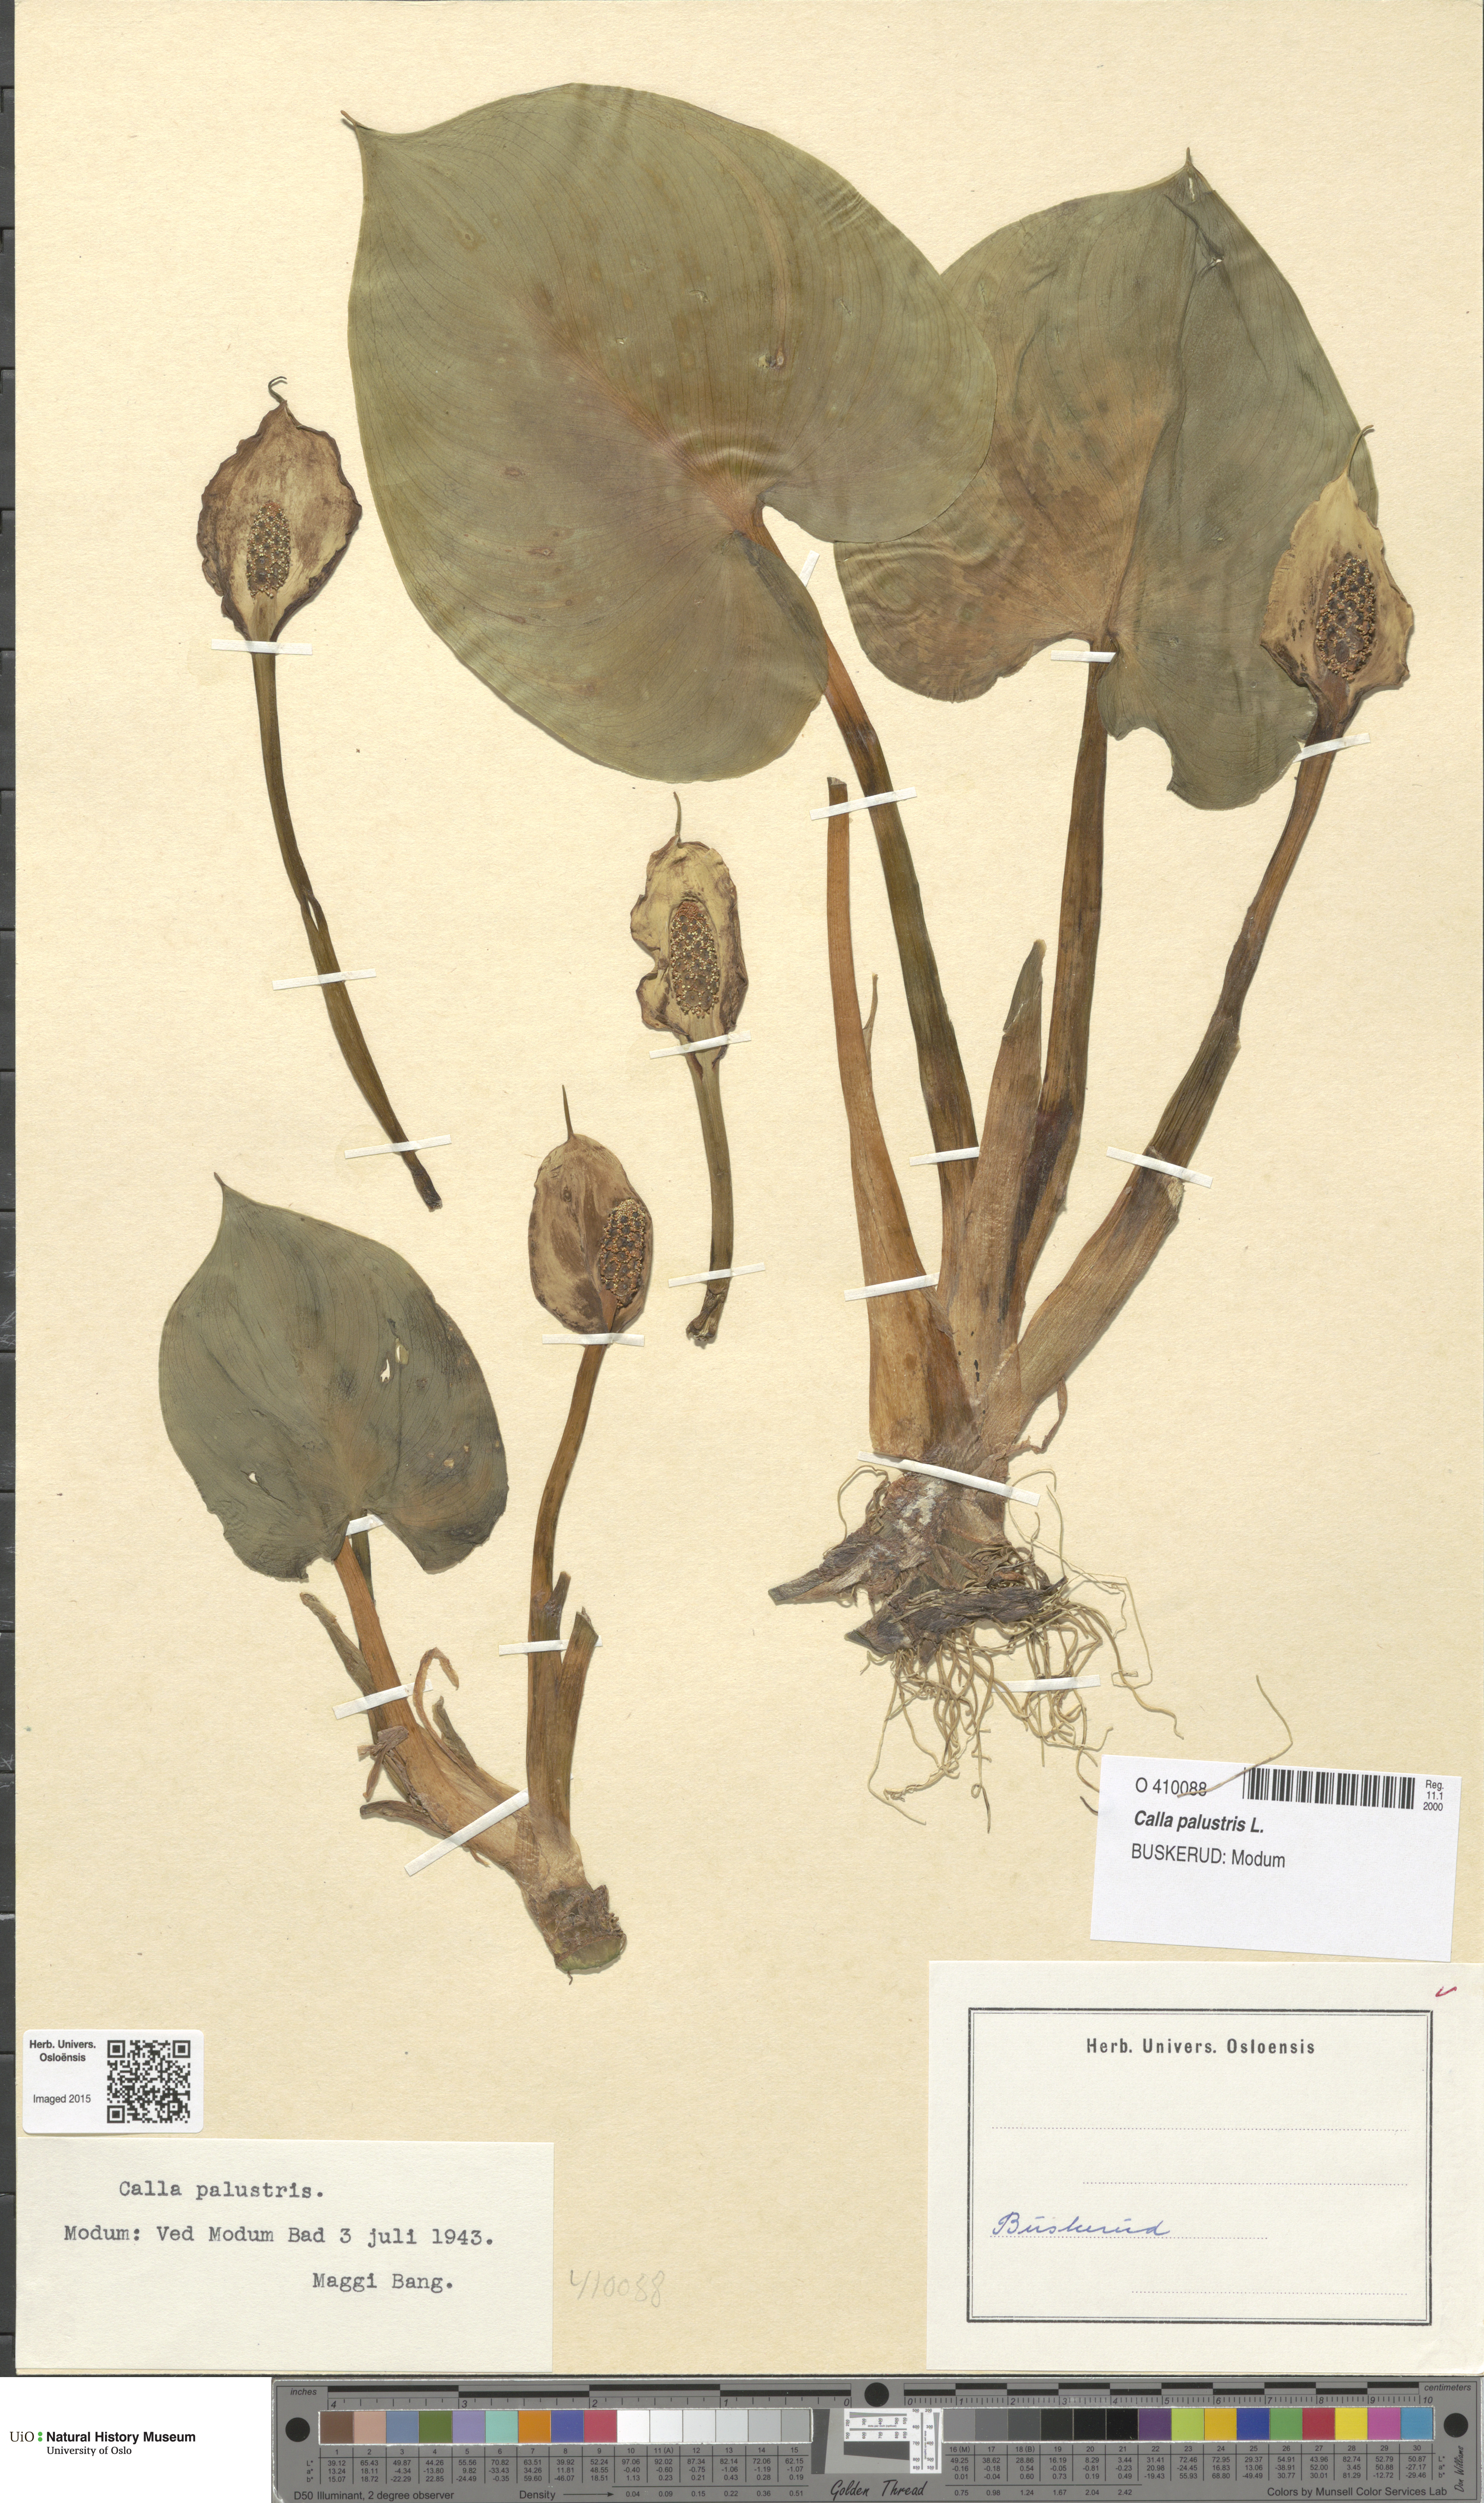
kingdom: Plantae
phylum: Tracheophyta
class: Liliopsida
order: Alismatales
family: Araceae
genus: Calla
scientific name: Calla palustris
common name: Bog arum
